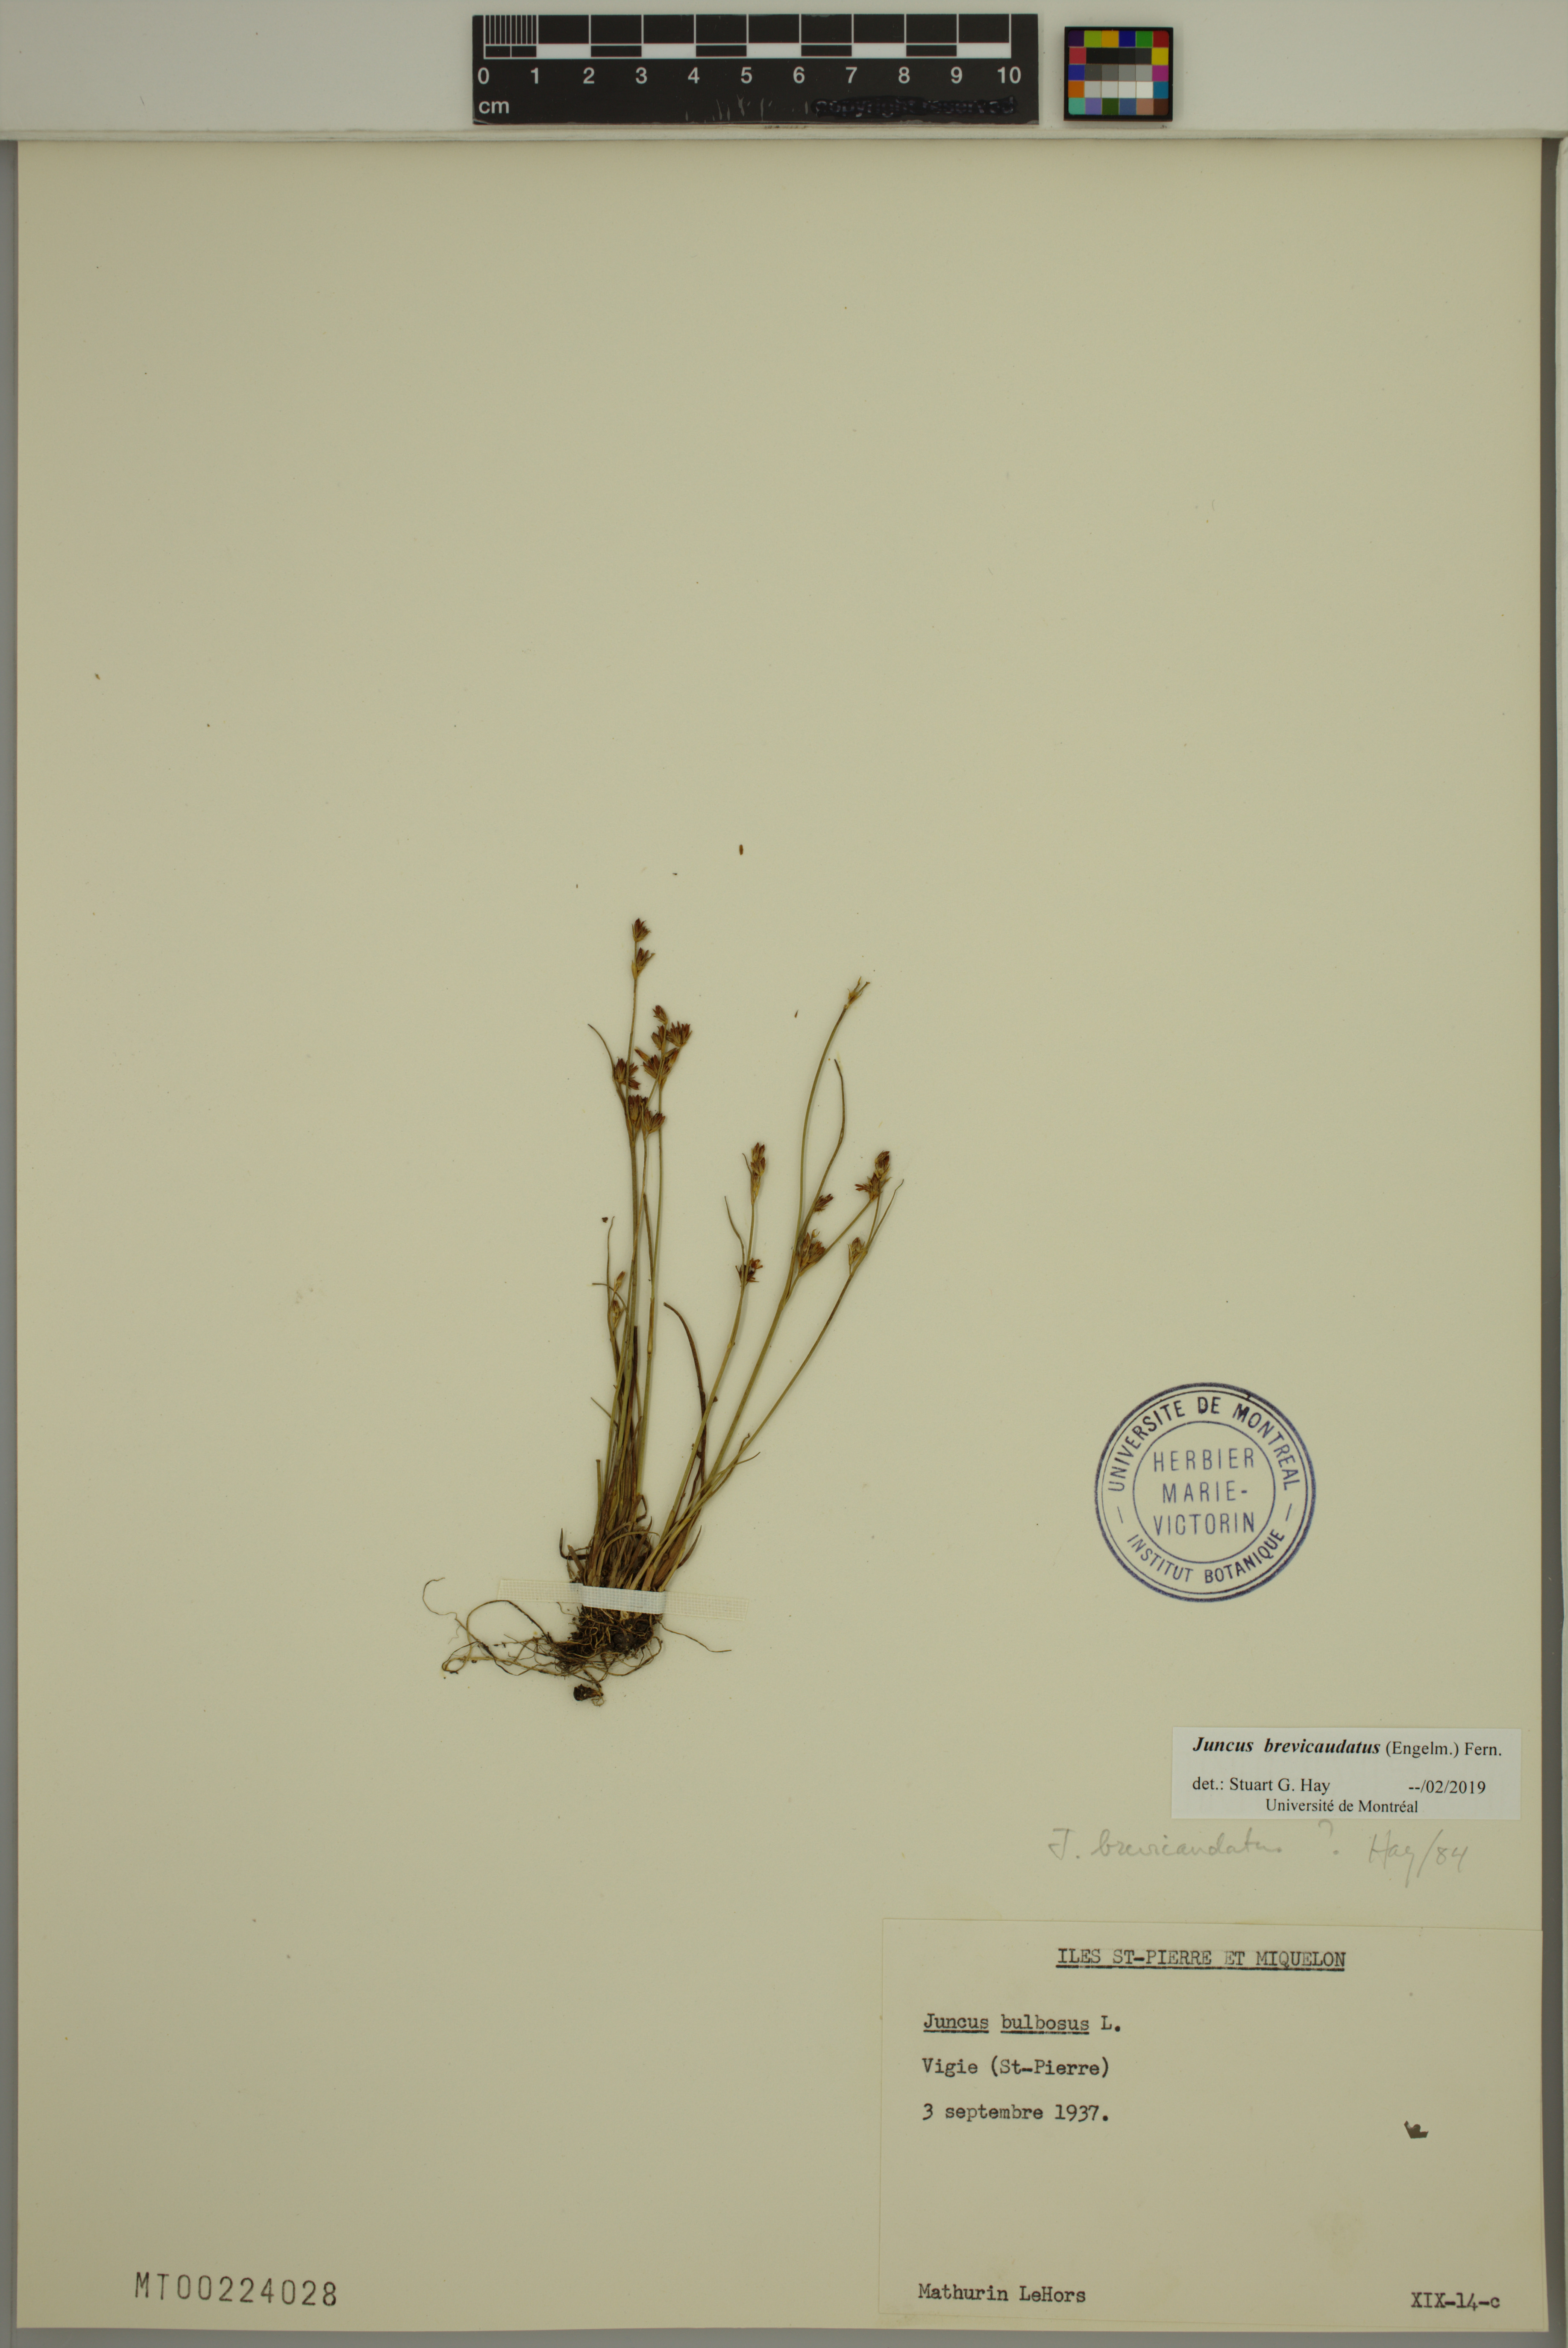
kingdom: Plantae
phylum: Tracheophyta
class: Liliopsida
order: Poales
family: Juncaceae
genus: Juncus
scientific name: Juncus brevicaudatus
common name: Narrow-panicle rush
